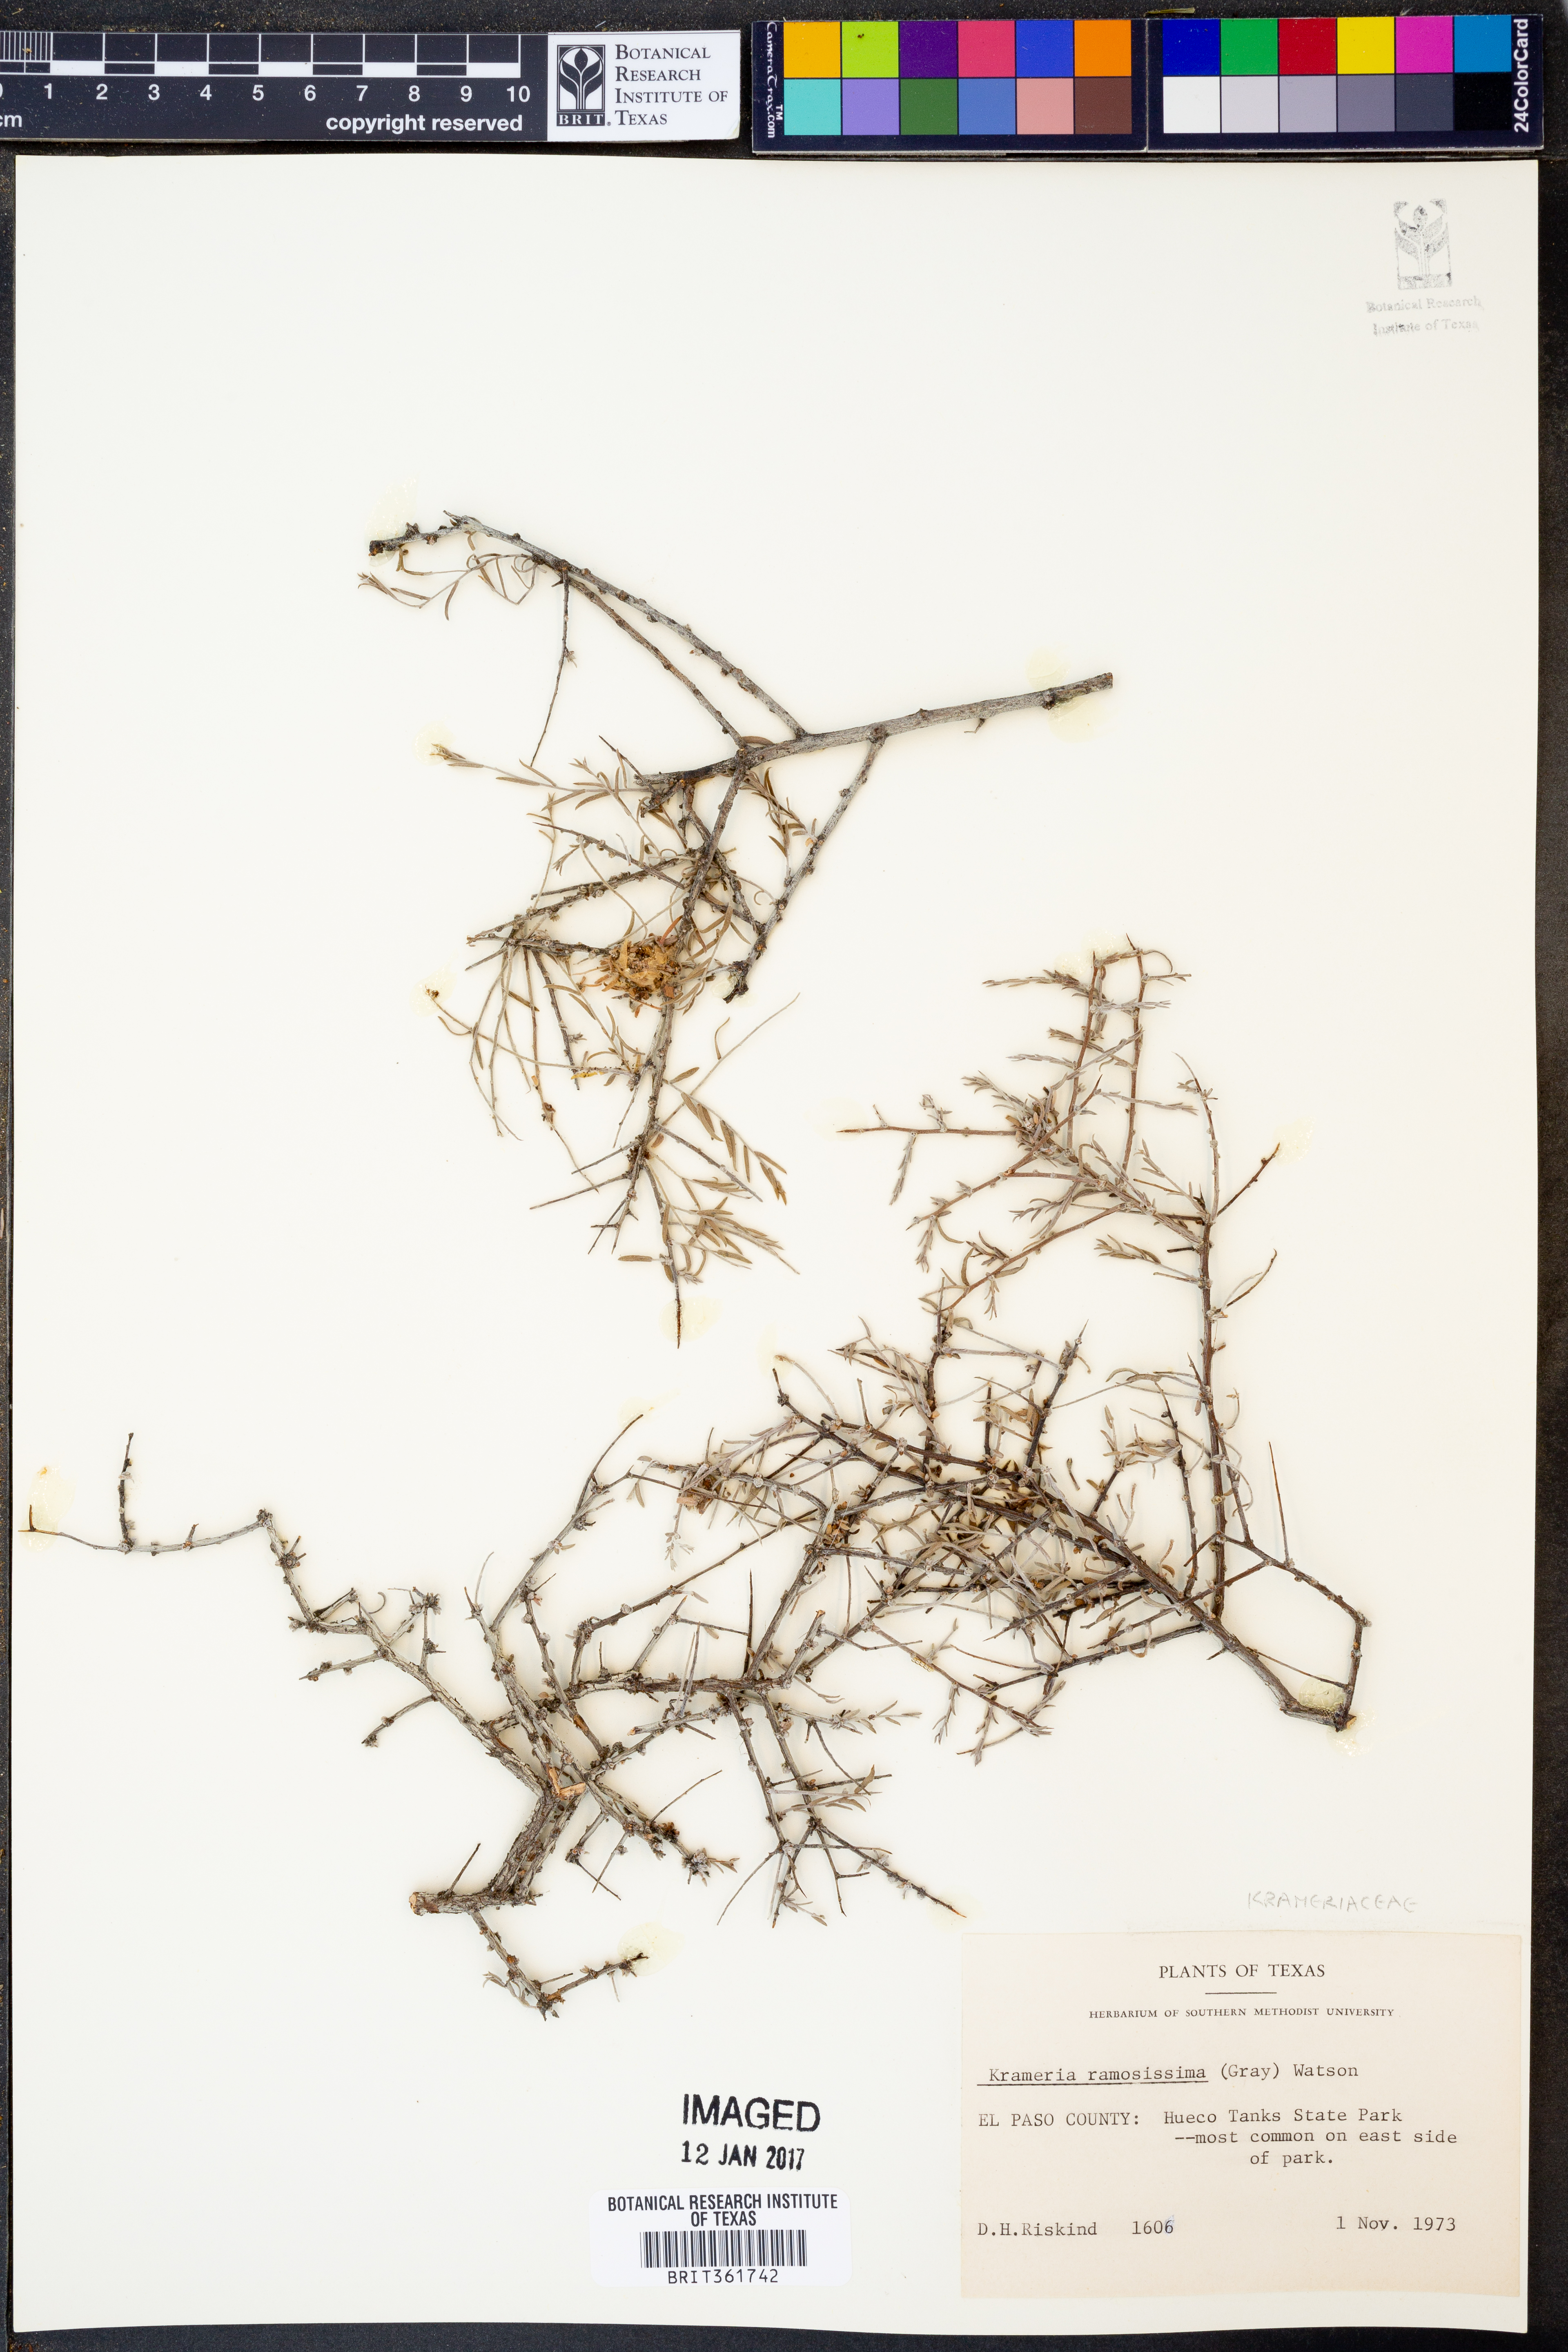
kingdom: Plantae
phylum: Tracheophyta
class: Magnoliopsida
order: Zygophyllales
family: Krameriaceae
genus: Krameria
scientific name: Krameria ramosissima
